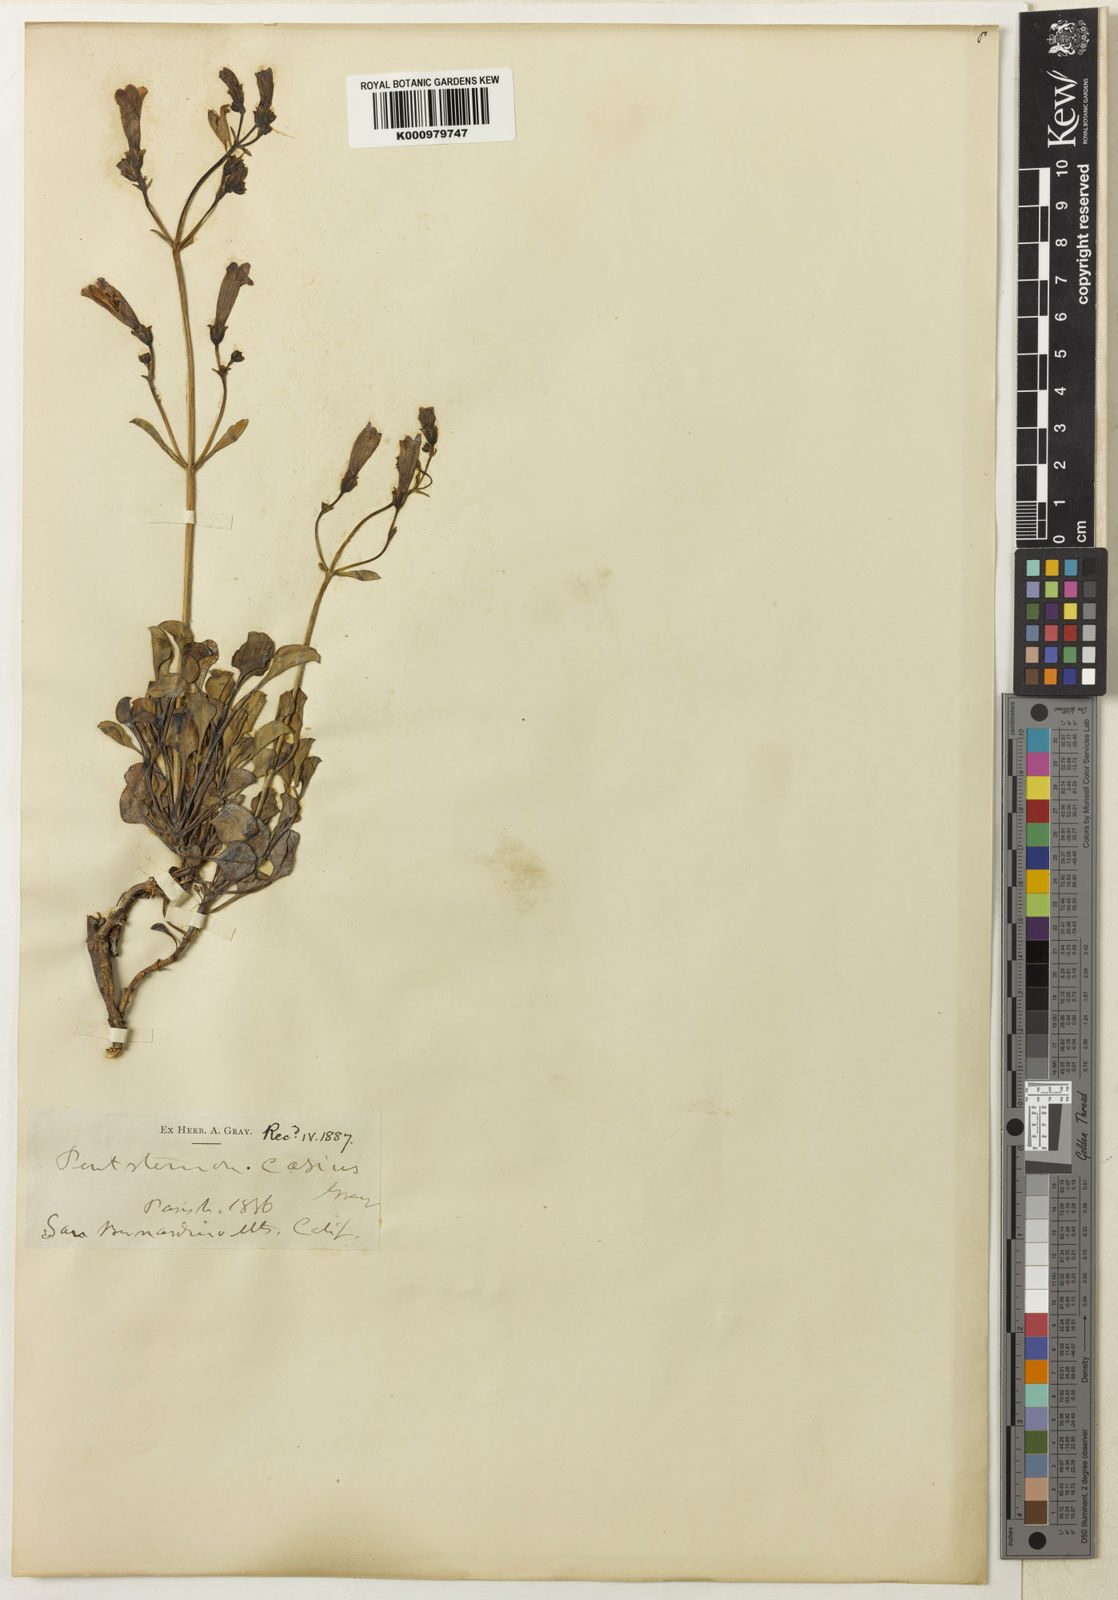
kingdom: Plantae
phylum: Tracheophyta
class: Magnoliopsida
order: Lamiales
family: Plantaginaceae
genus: Penstemon
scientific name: Penstemon caesius
